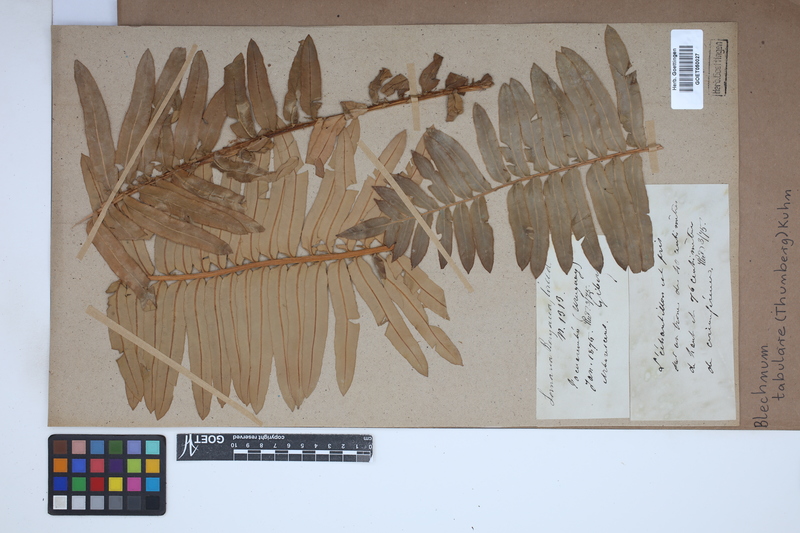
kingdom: Plantae
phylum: Tracheophyta
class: Polypodiopsida
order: Polypodiales
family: Blechnaceae
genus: Lomariocycas
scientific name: Lomariocycas tabularis
